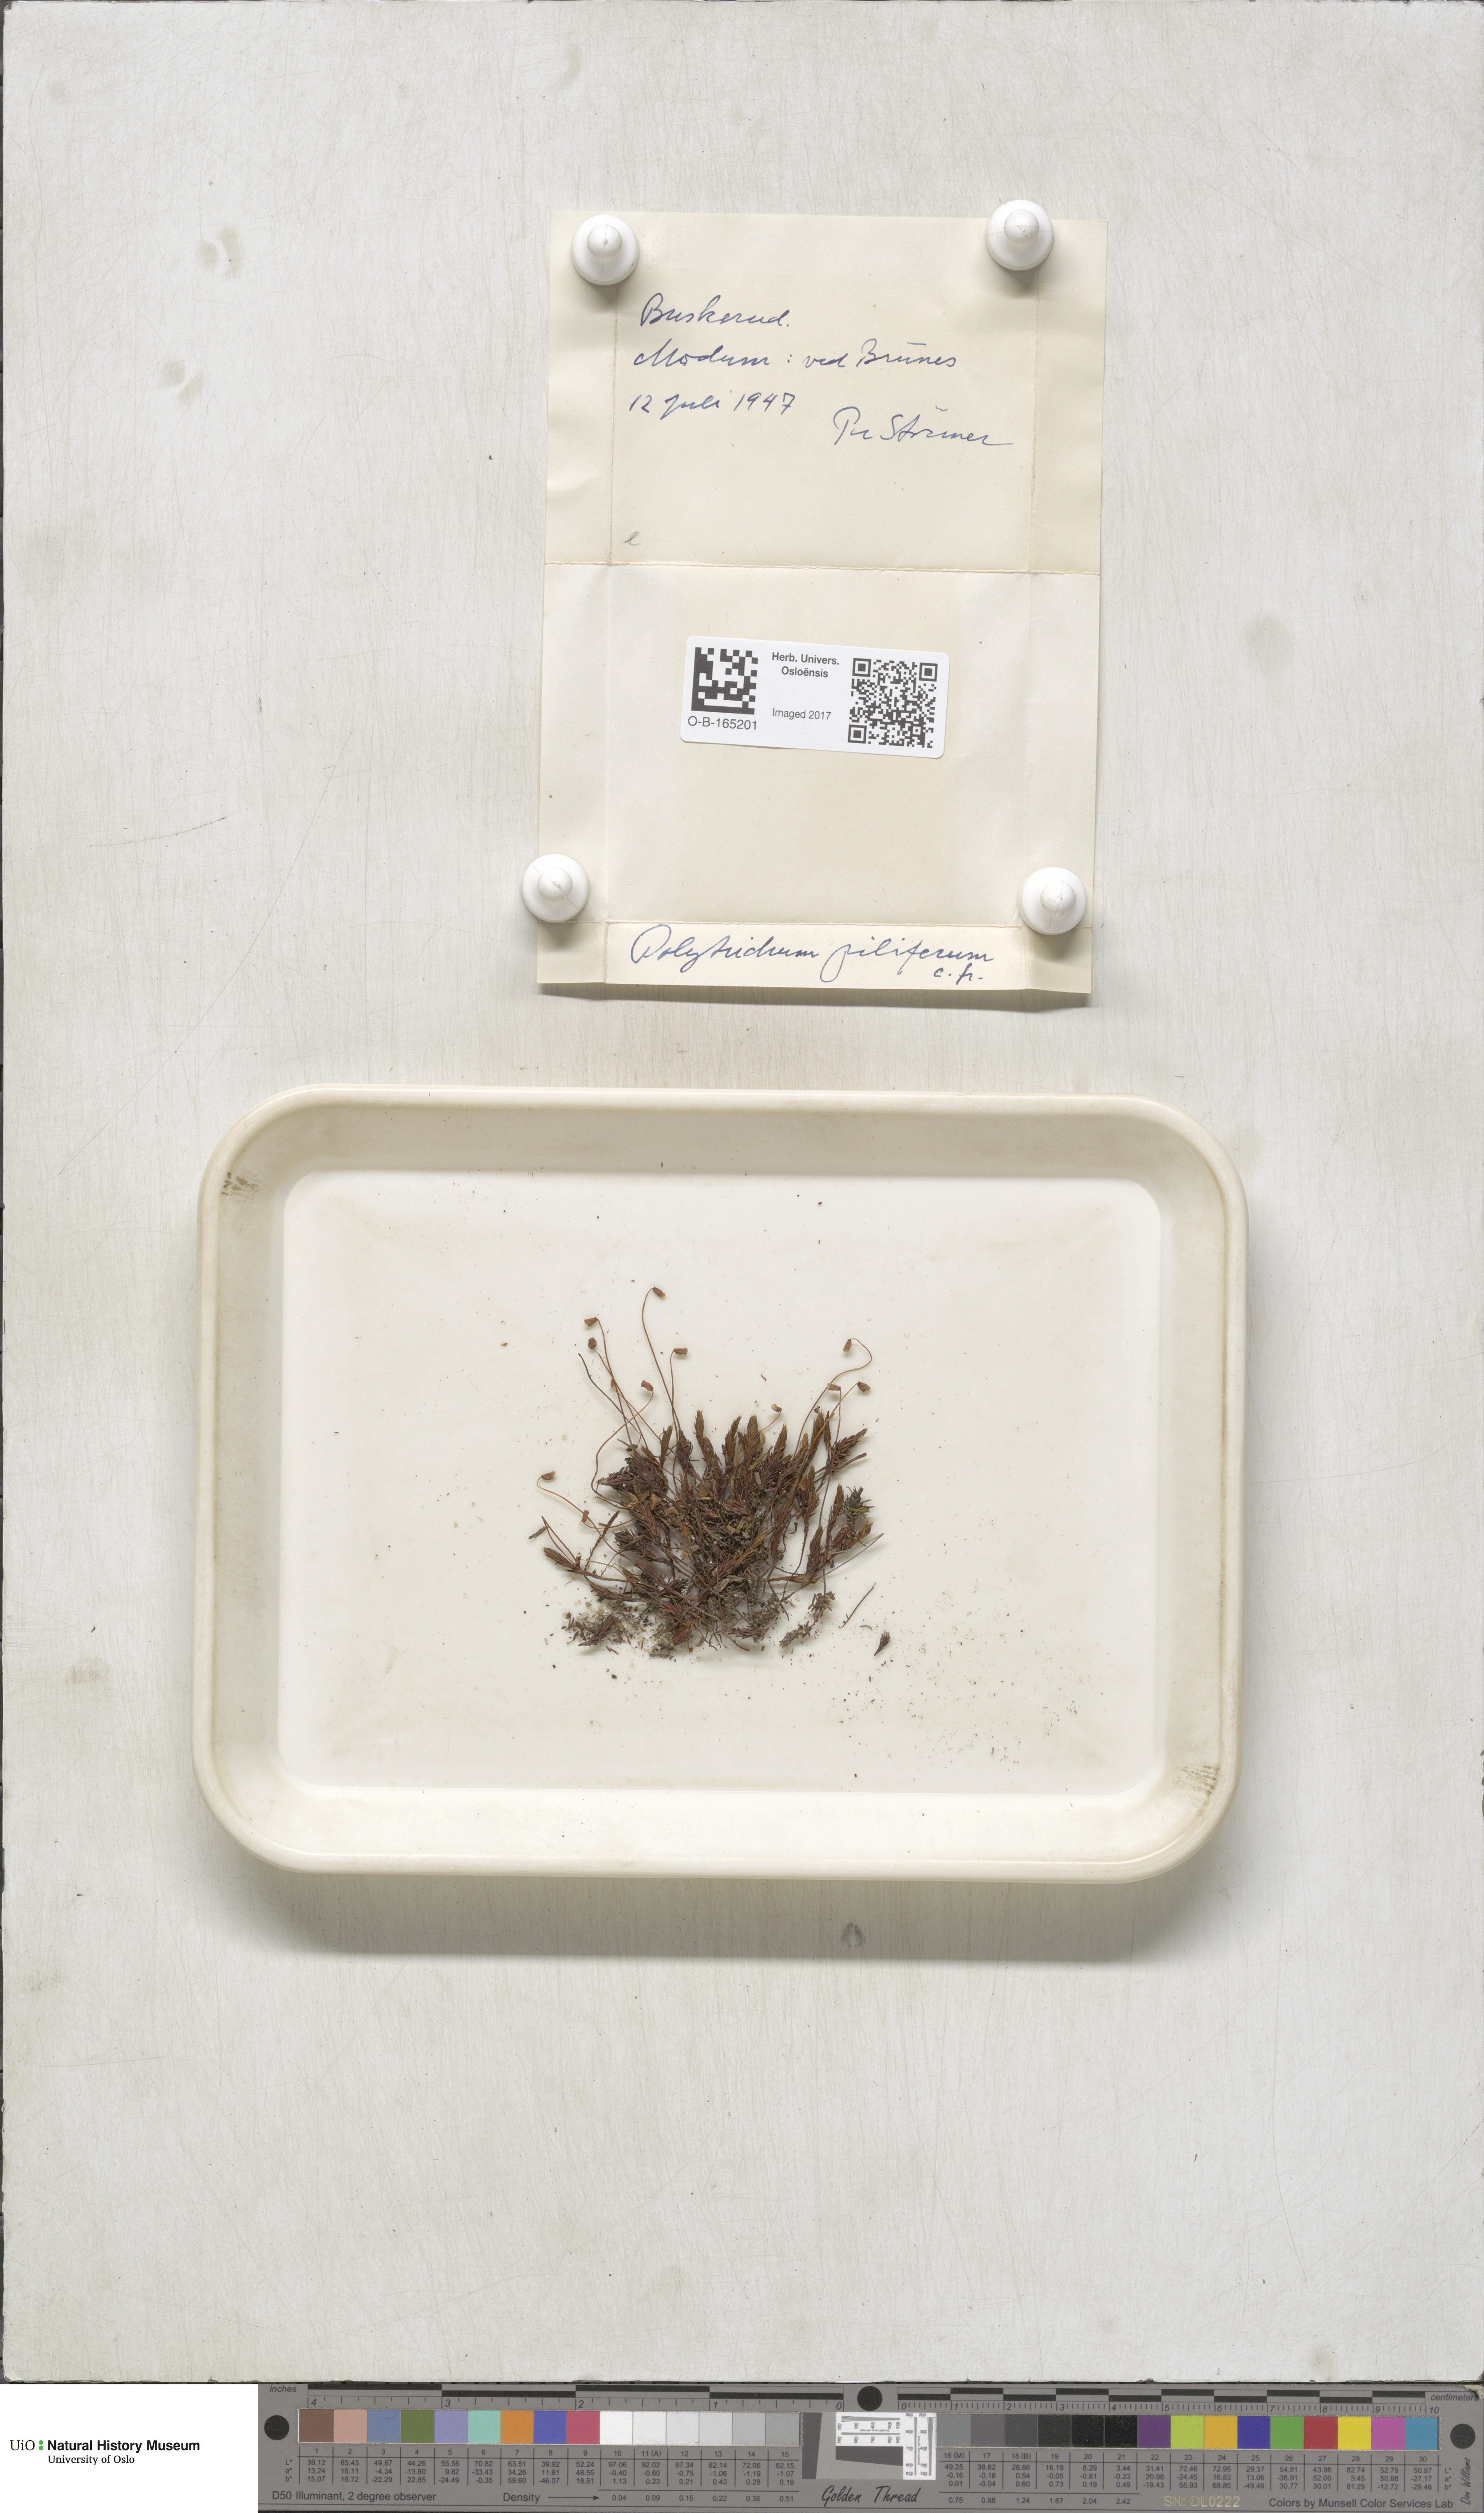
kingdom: Plantae
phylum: Bryophyta
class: Polytrichopsida
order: Polytrichales
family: Polytrichaceae
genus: Polytrichum
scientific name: Polytrichum piliferum
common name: Bristly haircap
